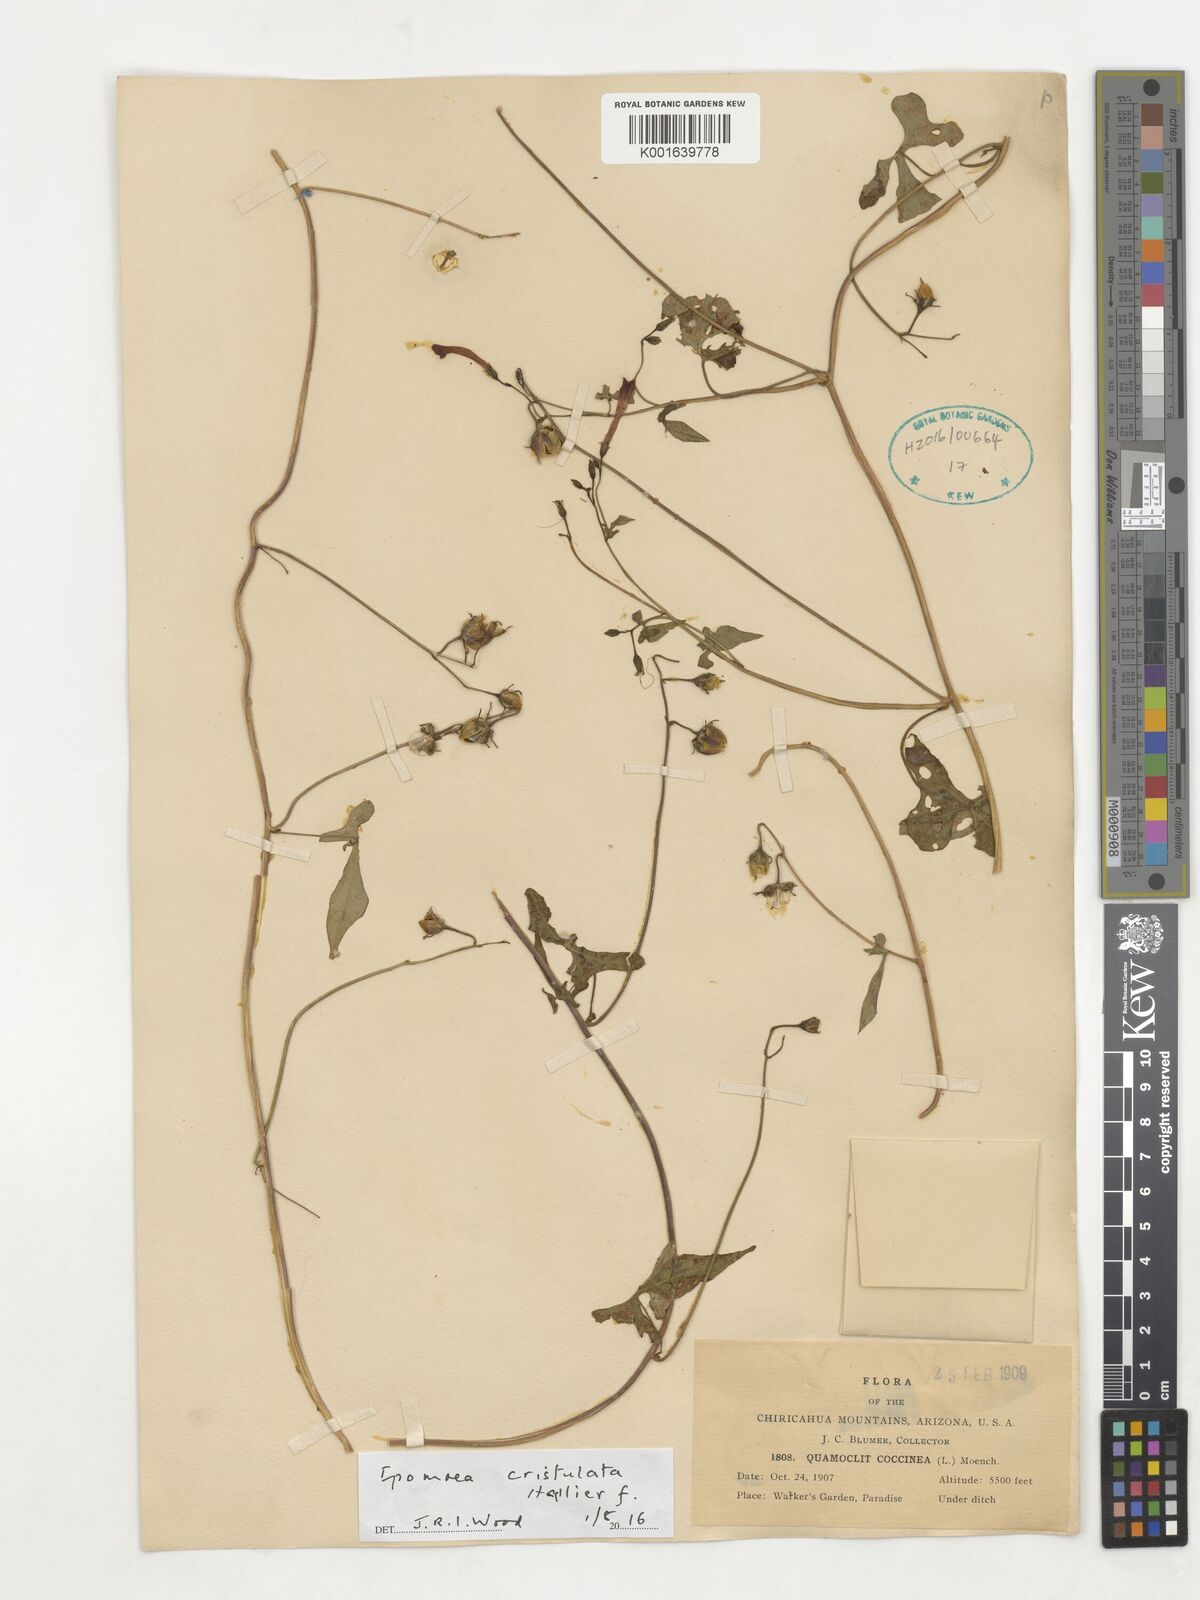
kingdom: Plantae
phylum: Tracheophyta
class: Magnoliopsida
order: Solanales
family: Convolvulaceae
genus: Ipomoea
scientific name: Ipomoea cristulata
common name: Trans-pecos morning-glory
